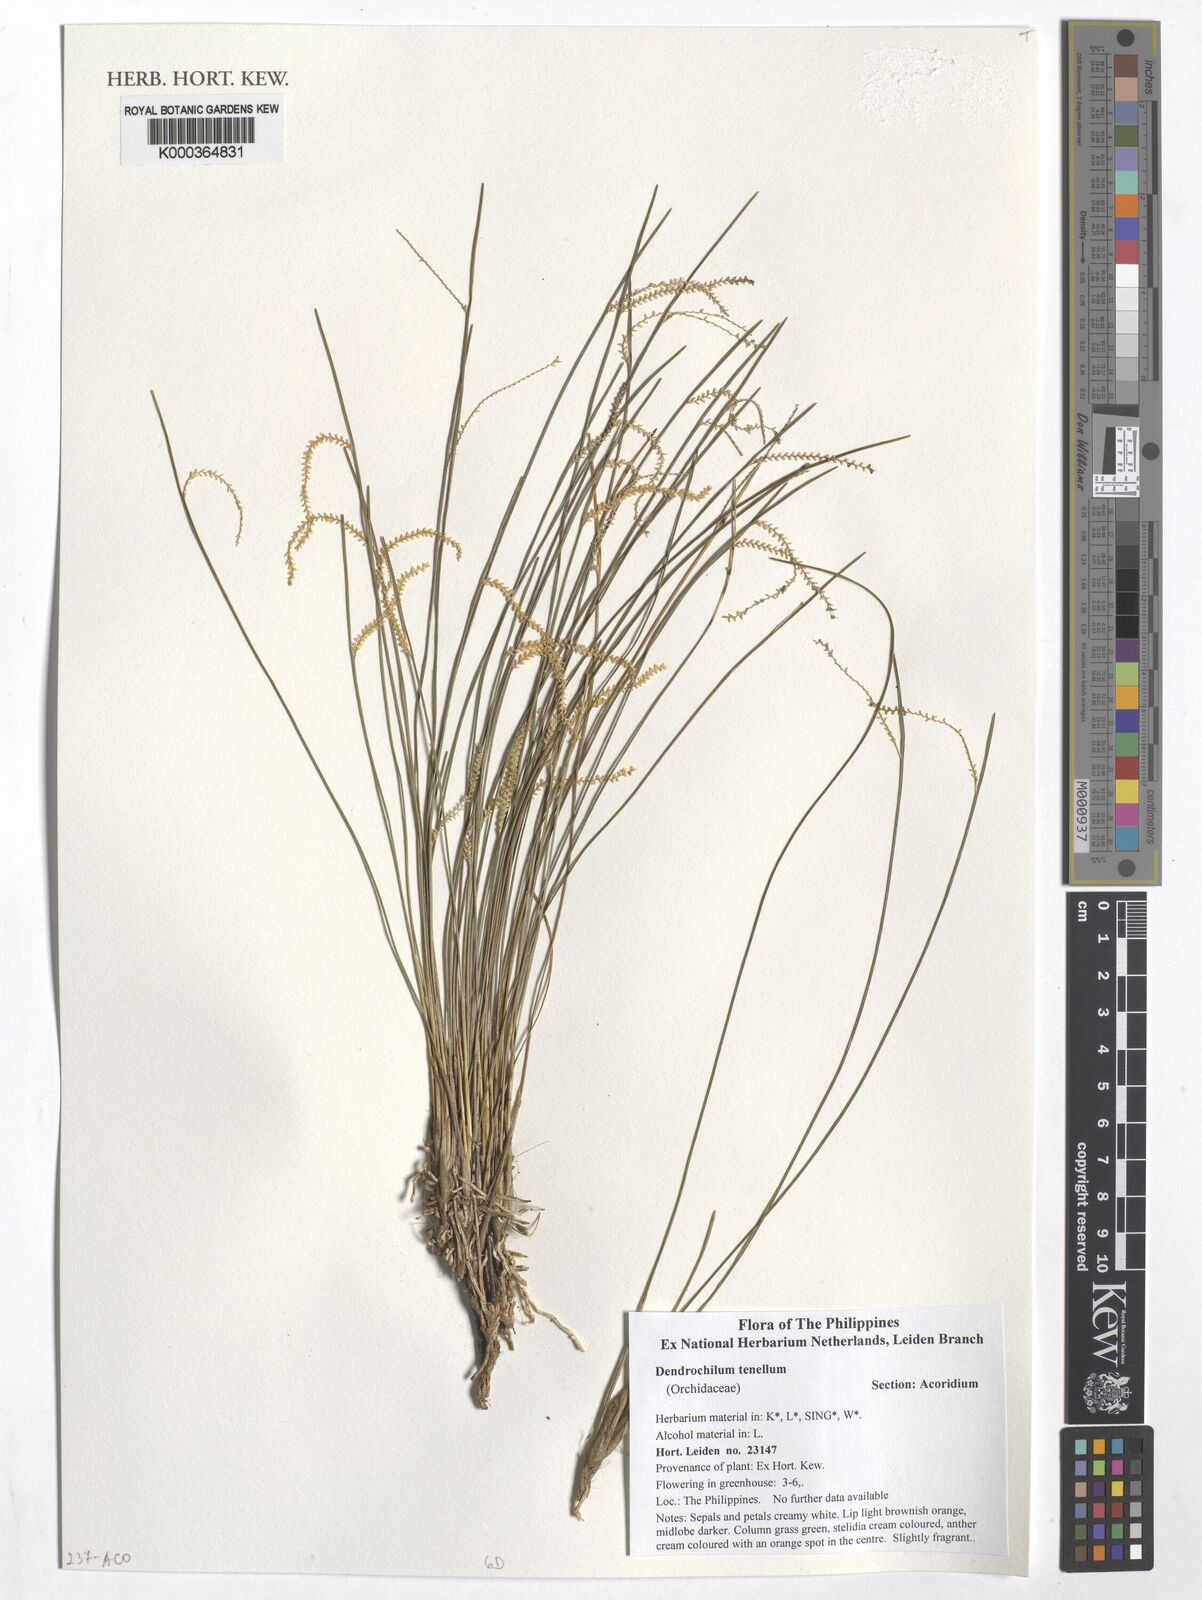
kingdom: Plantae
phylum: Tracheophyta
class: Liliopsida
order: Asparagales
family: Orchidaceae
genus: Coelogyne
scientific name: Coelogyne tenella
